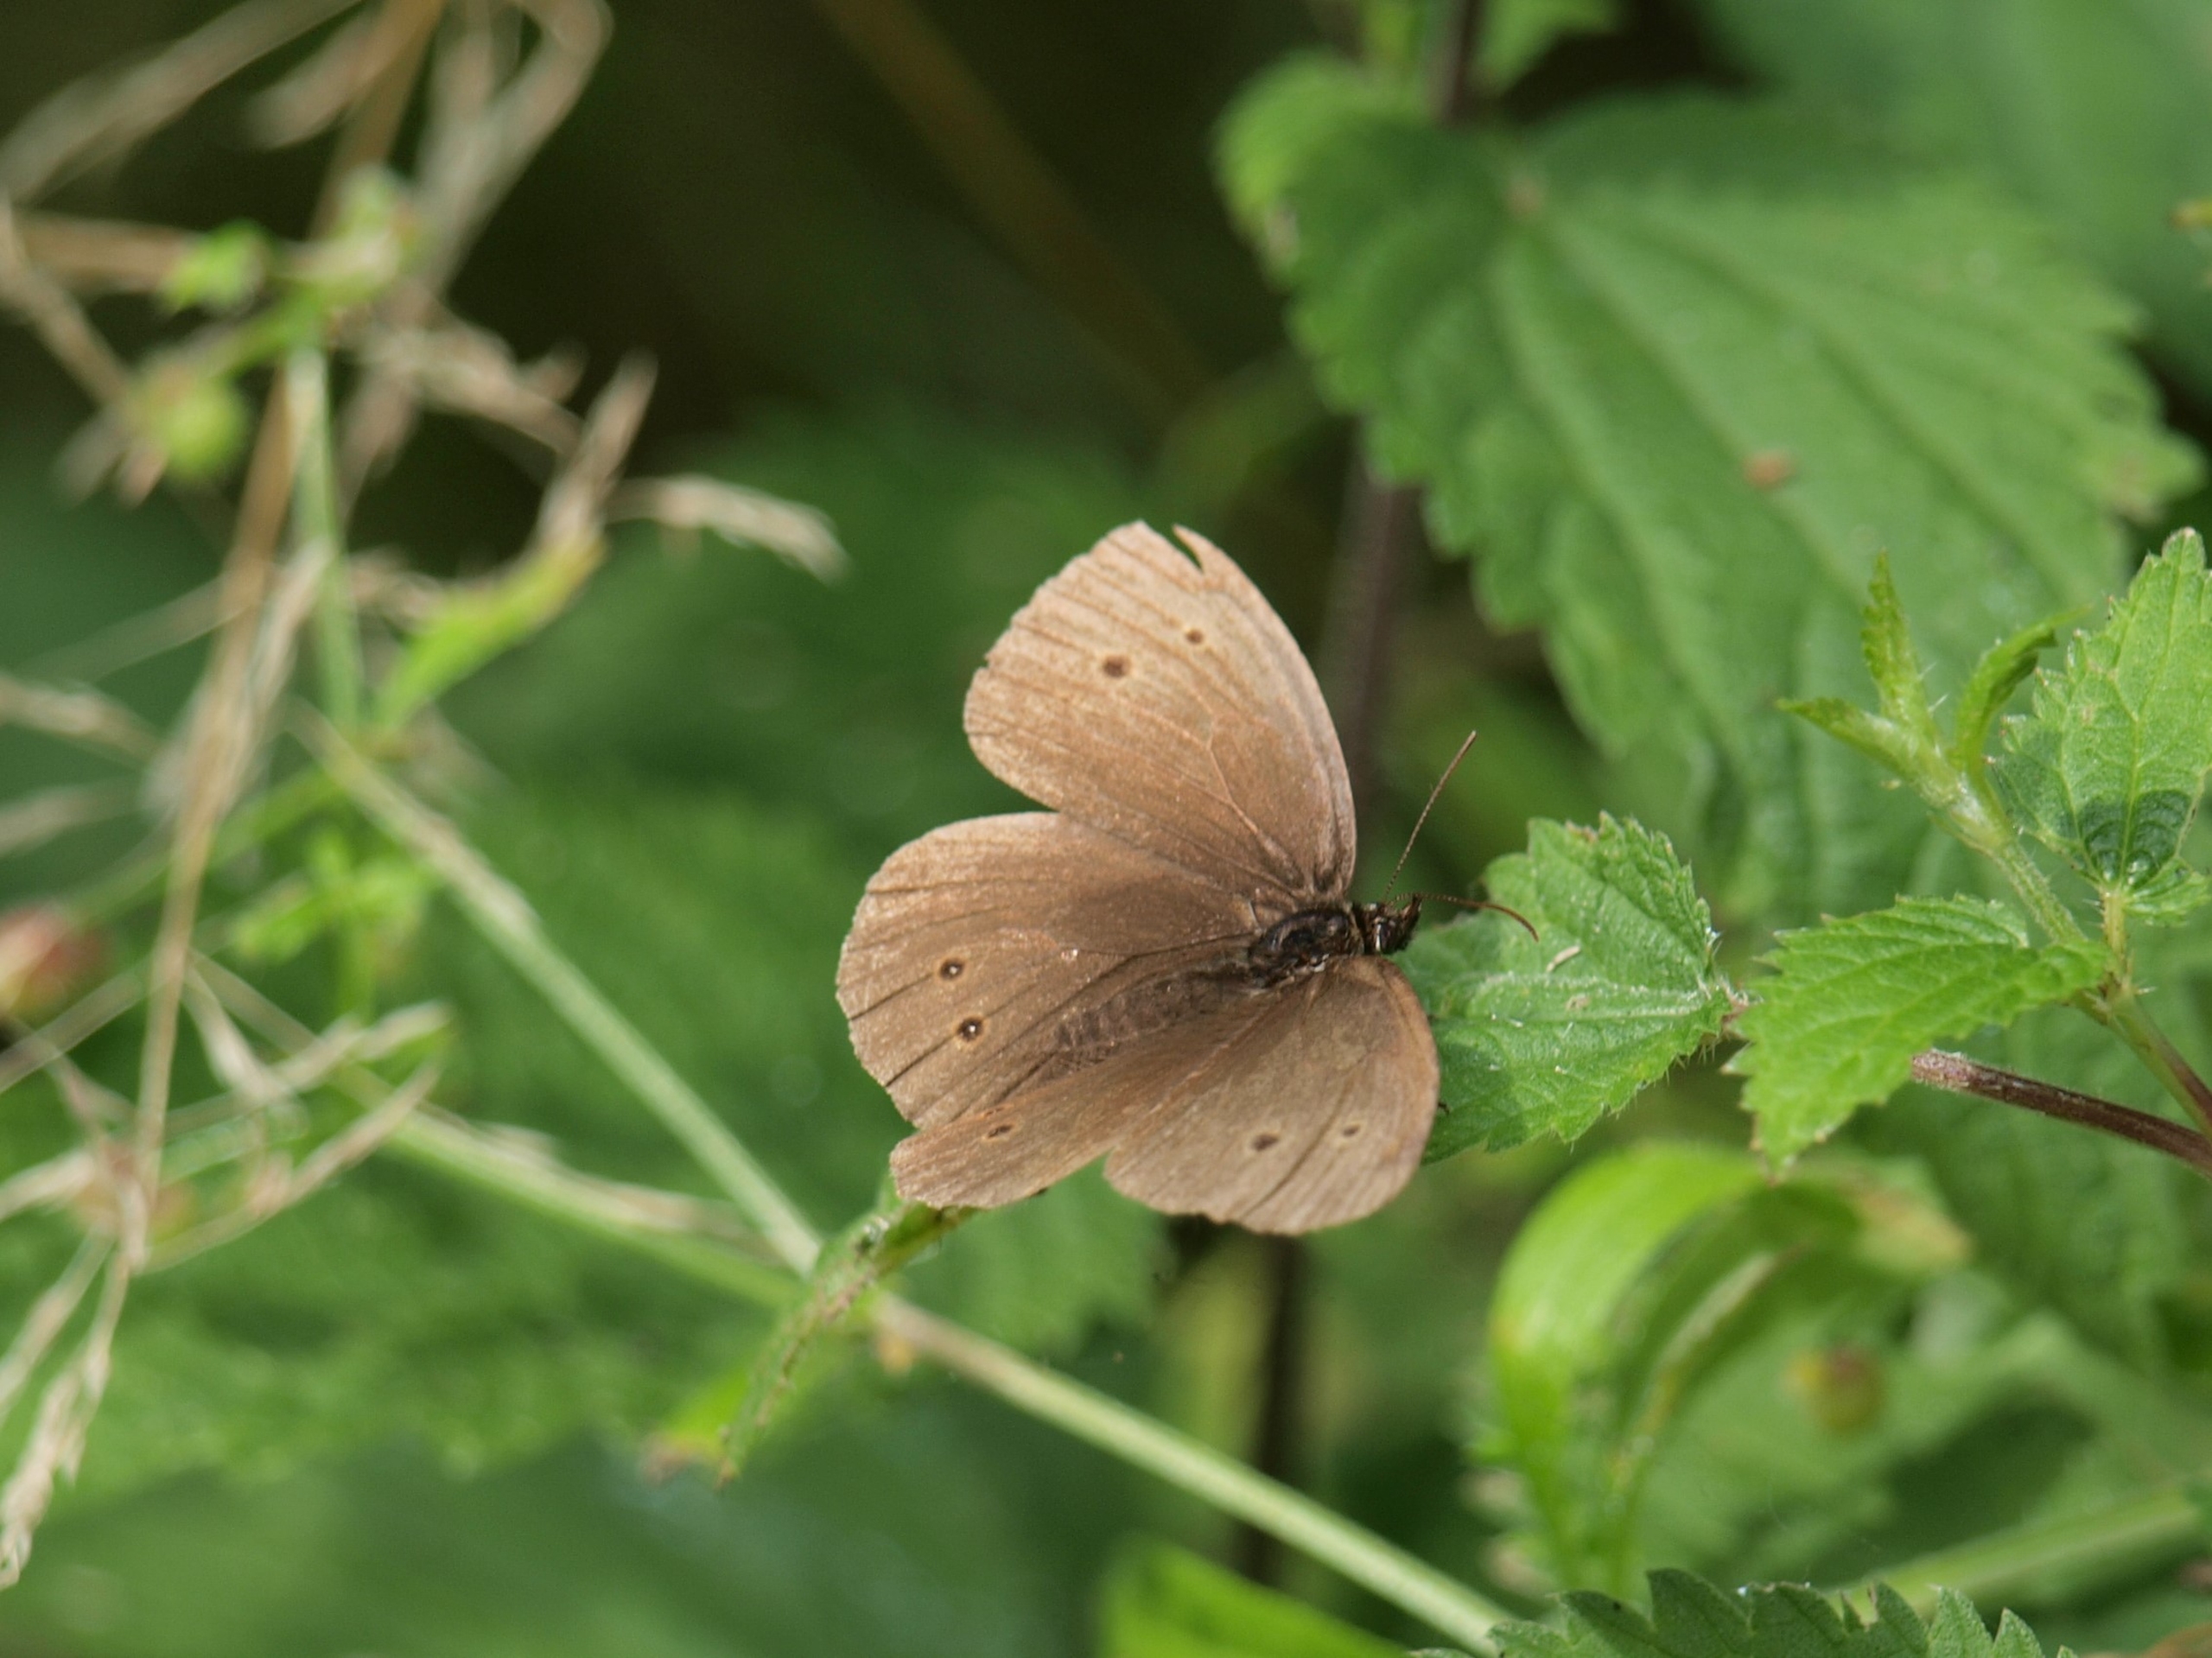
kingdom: Animalia
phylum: Arthropoda
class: Insecta
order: Lepidoptera
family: Nymphalidae
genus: Aphantopus
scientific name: Aphantopus hyperantus
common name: Engrandøje
